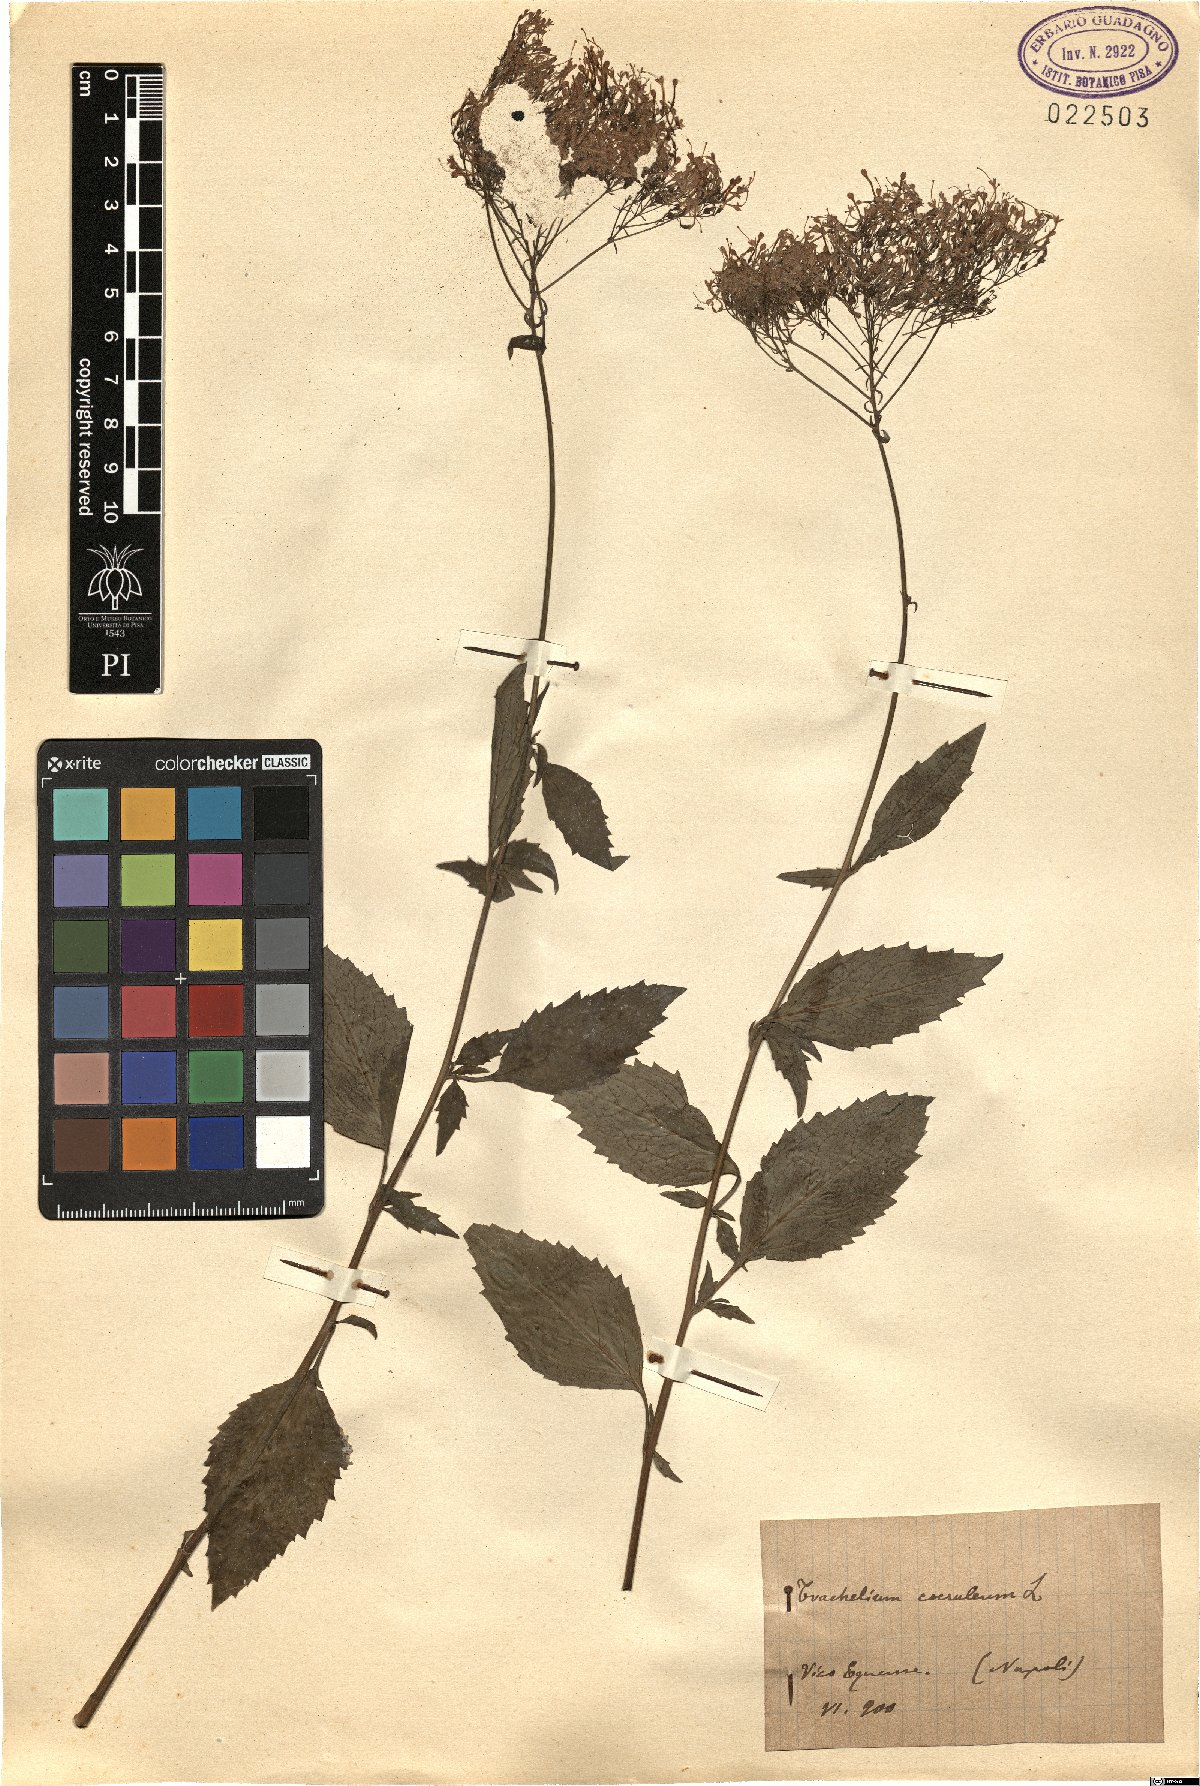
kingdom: Plantae
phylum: Tracheophyta
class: Magnoliopsida
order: Asterales
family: Campanulaceae
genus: Trachelium
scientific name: Trachelium caeruleum
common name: Throatwort
